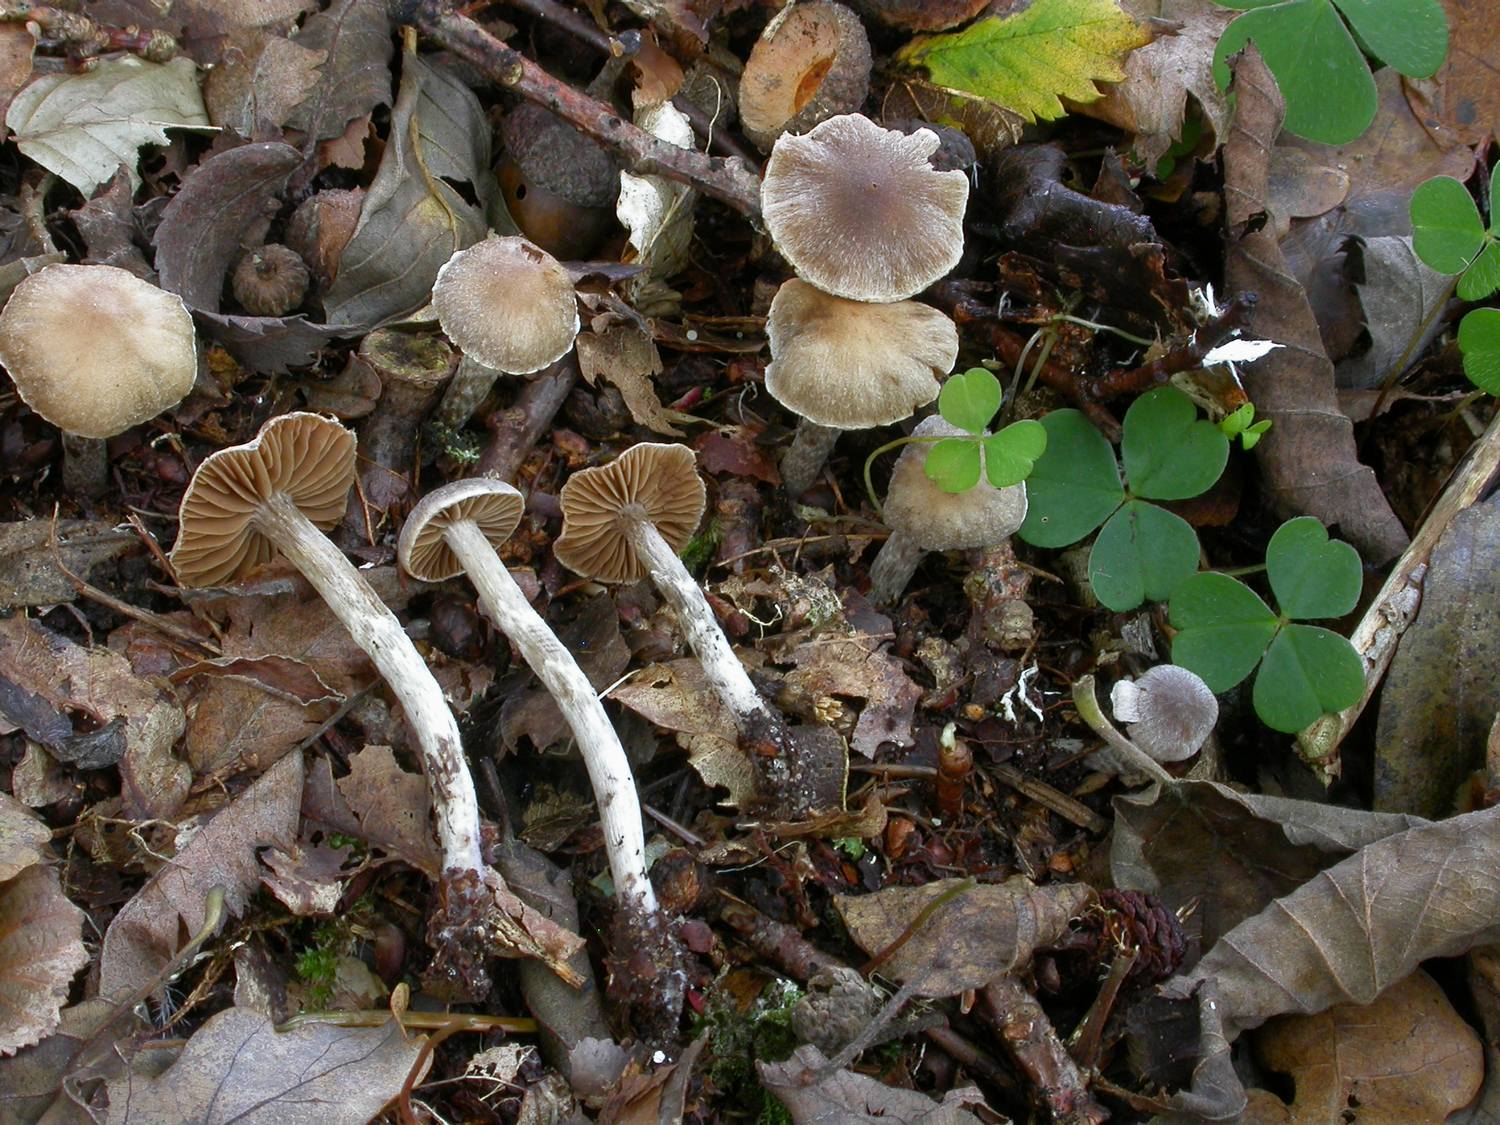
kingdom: Fungi
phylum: Basidiomycota
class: Agaricomycetes
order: Agaricales
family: Cortinariaceae
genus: Cortinarius
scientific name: Cortinarius
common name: pelargonie-slørhat
